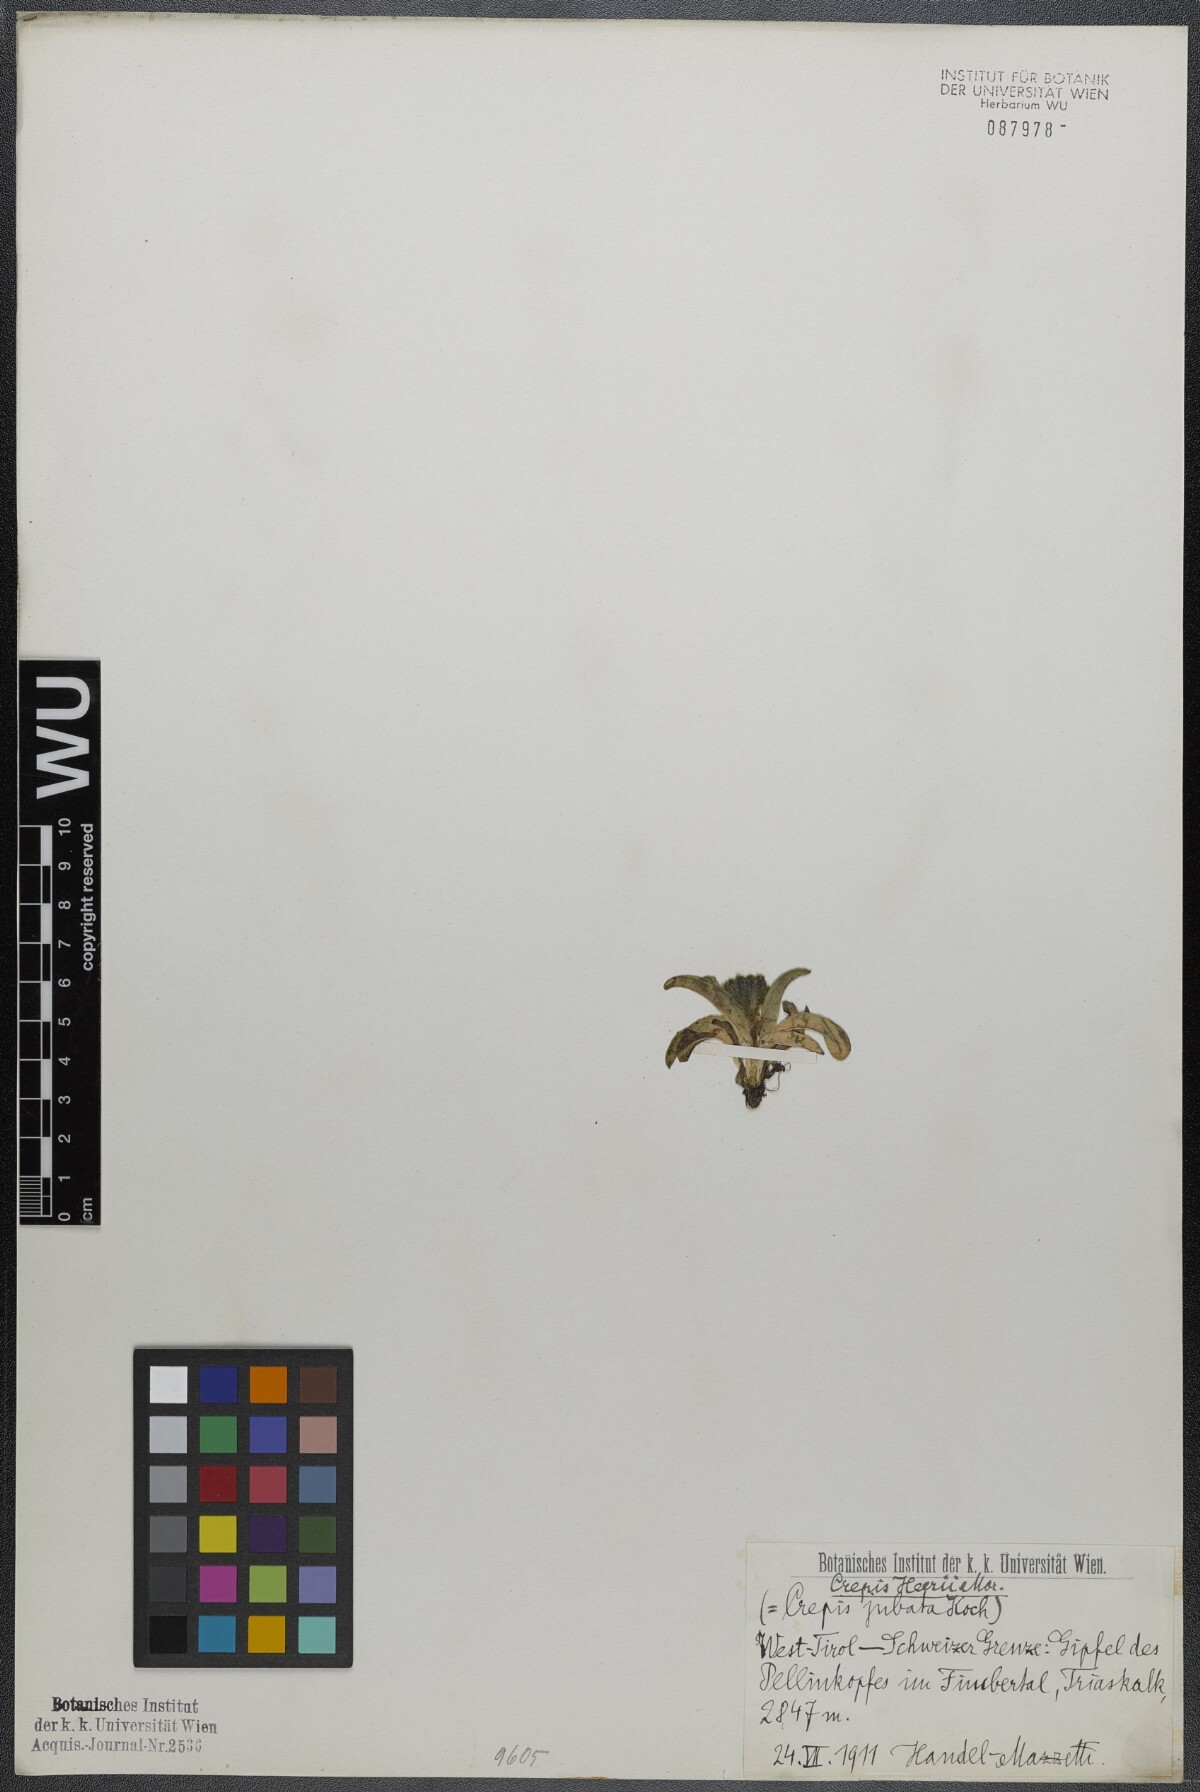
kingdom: Plantae
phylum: Tracheophyta
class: Magnoliopsida
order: Asterales
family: Asteraceae
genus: Crepis
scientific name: Crepis rhaetica
